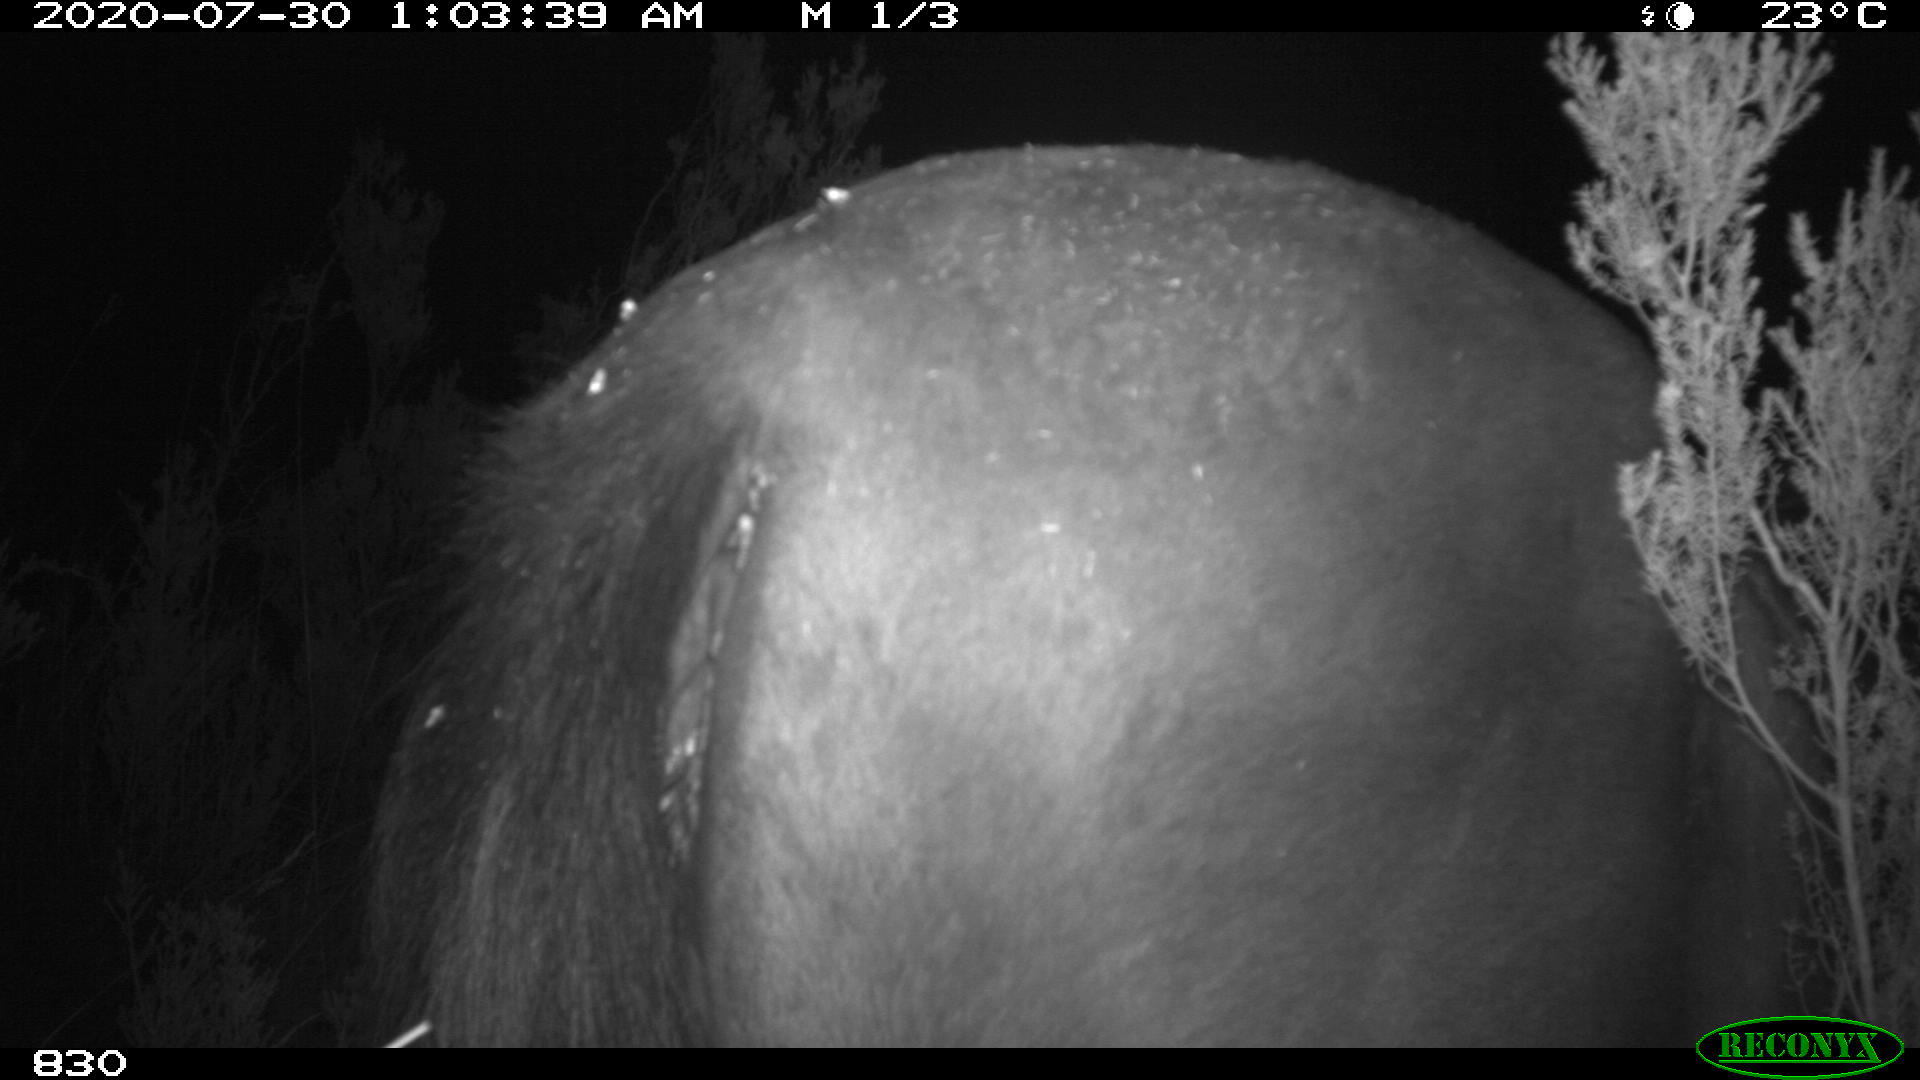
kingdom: Animalia
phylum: Chordata
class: Mammalia
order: Perissodactyla
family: Equidae
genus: Equus
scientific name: Equus caballus
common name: Horse
